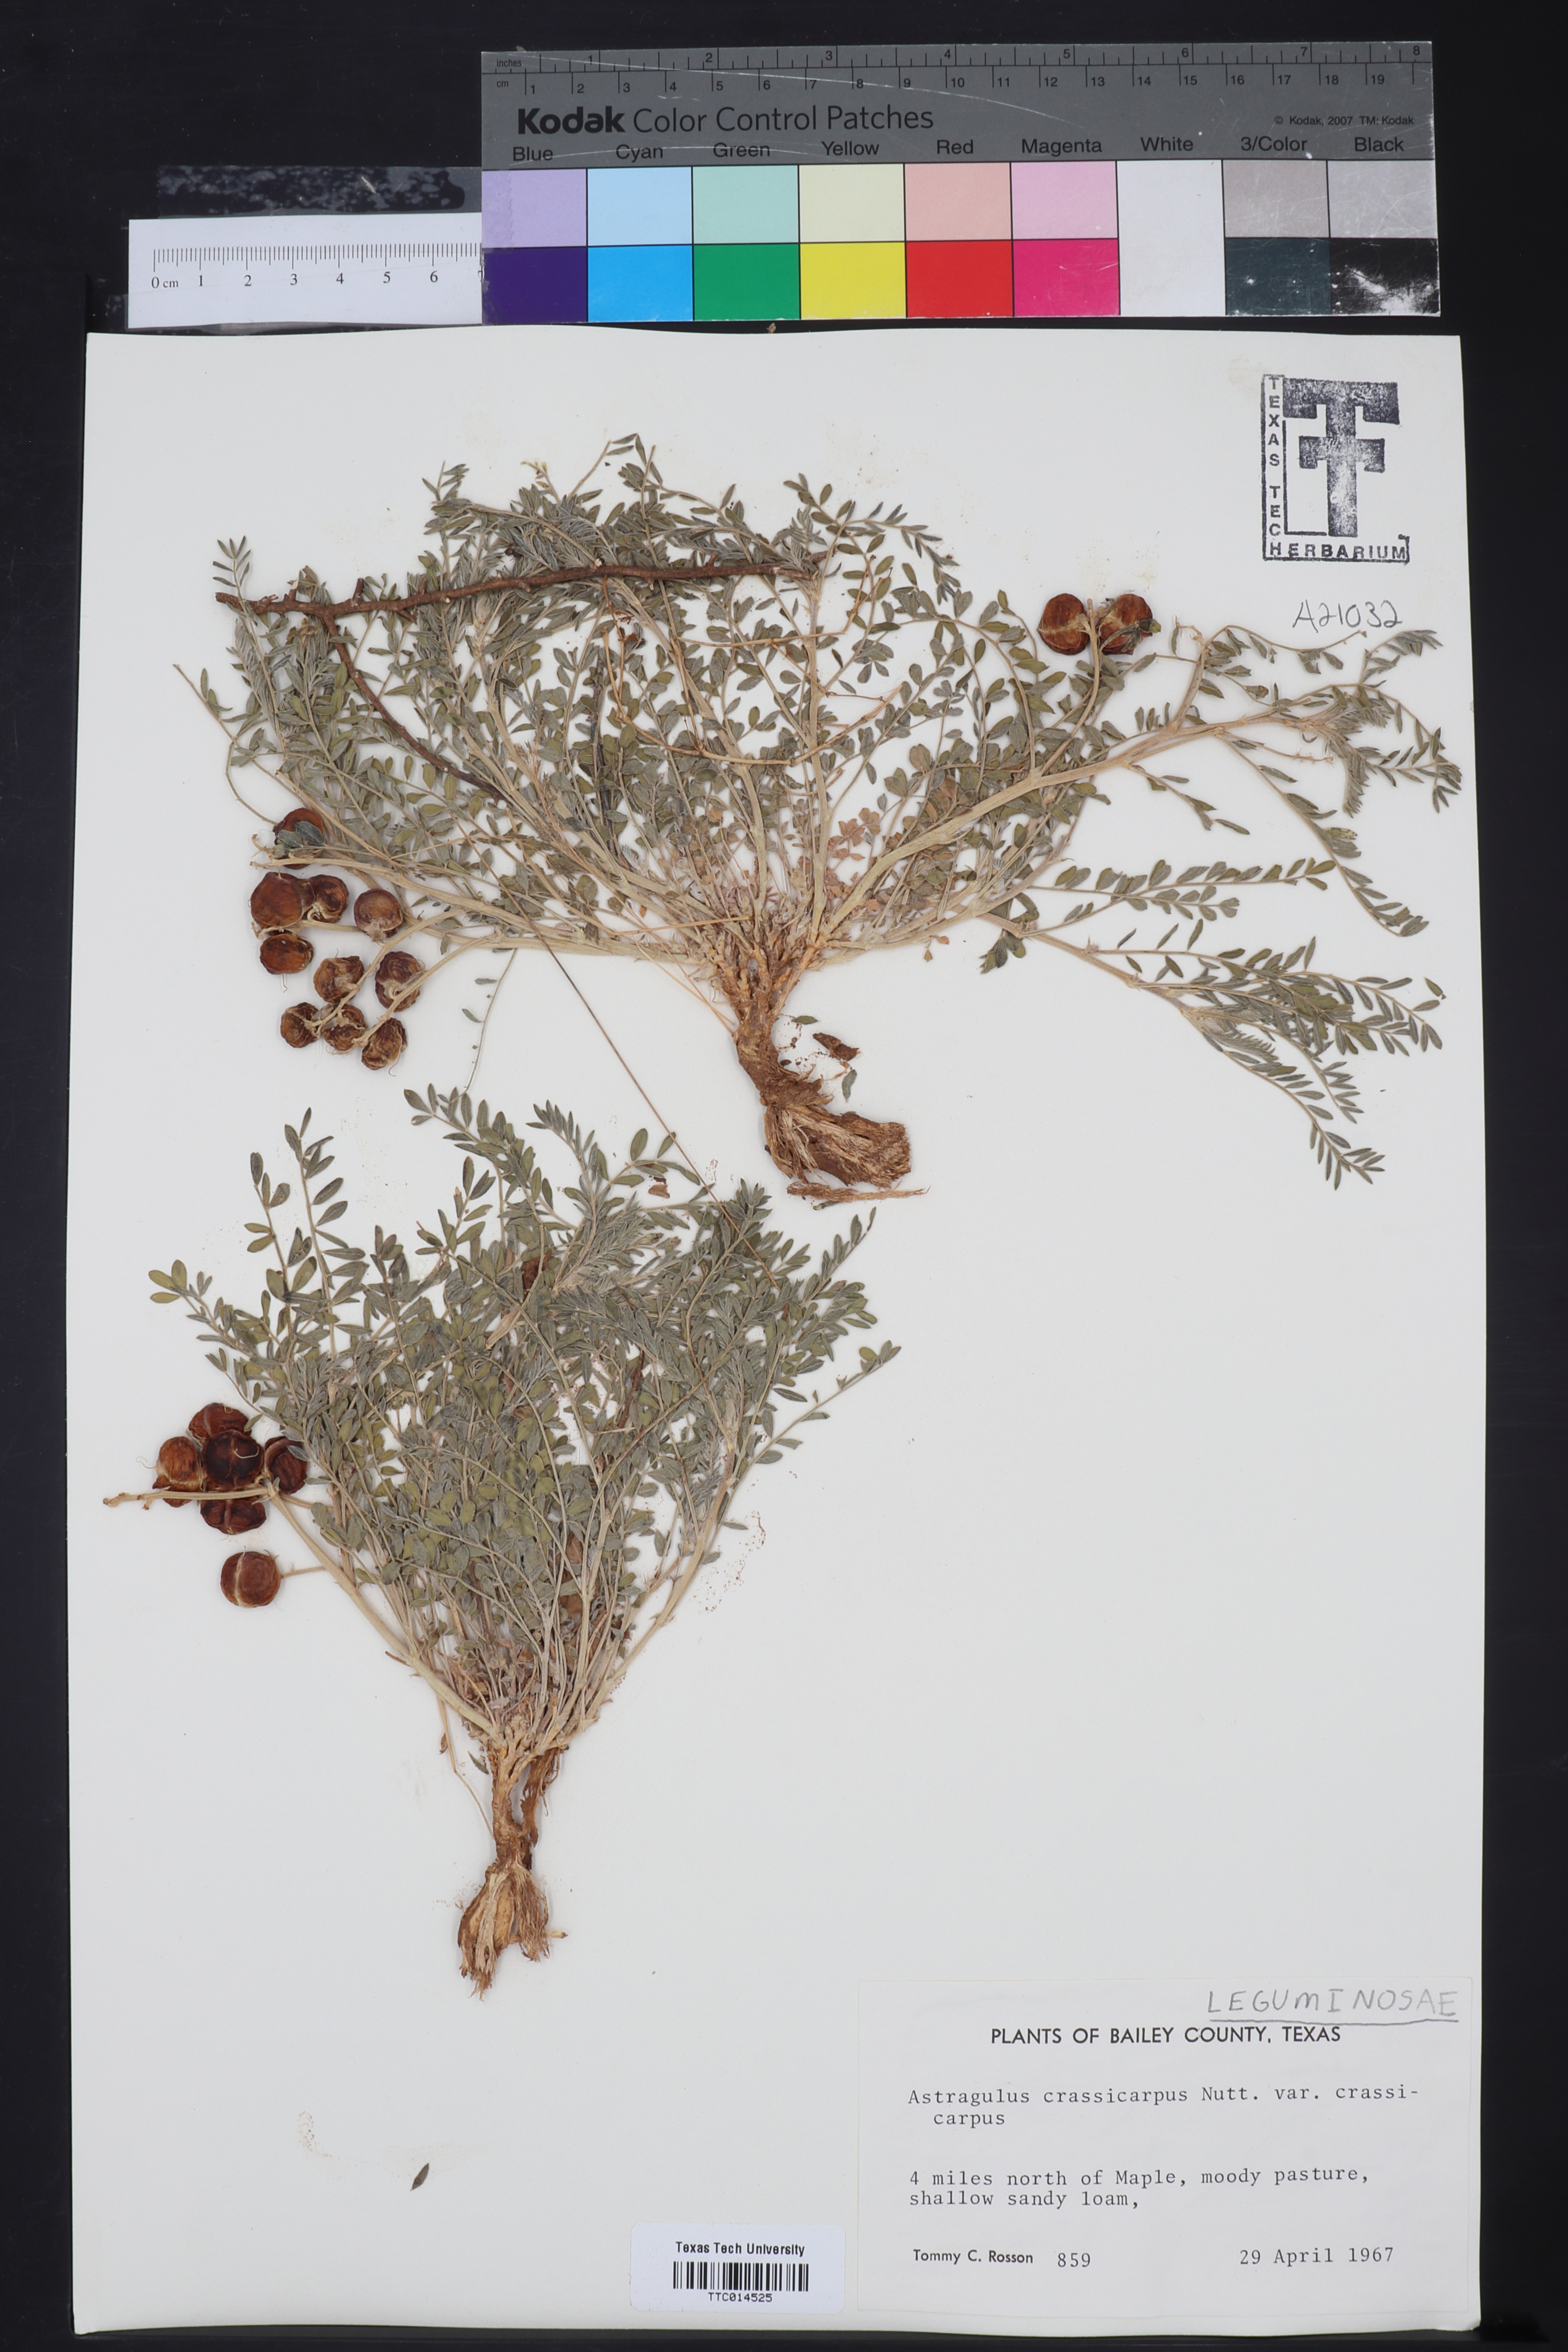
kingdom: Plantae
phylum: Tracheophyta
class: Magnoliopsida
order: Fabales
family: Fabaceae
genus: Astragalus
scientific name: Astragalus crassicarpus
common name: Ground-plum milk-vetch
